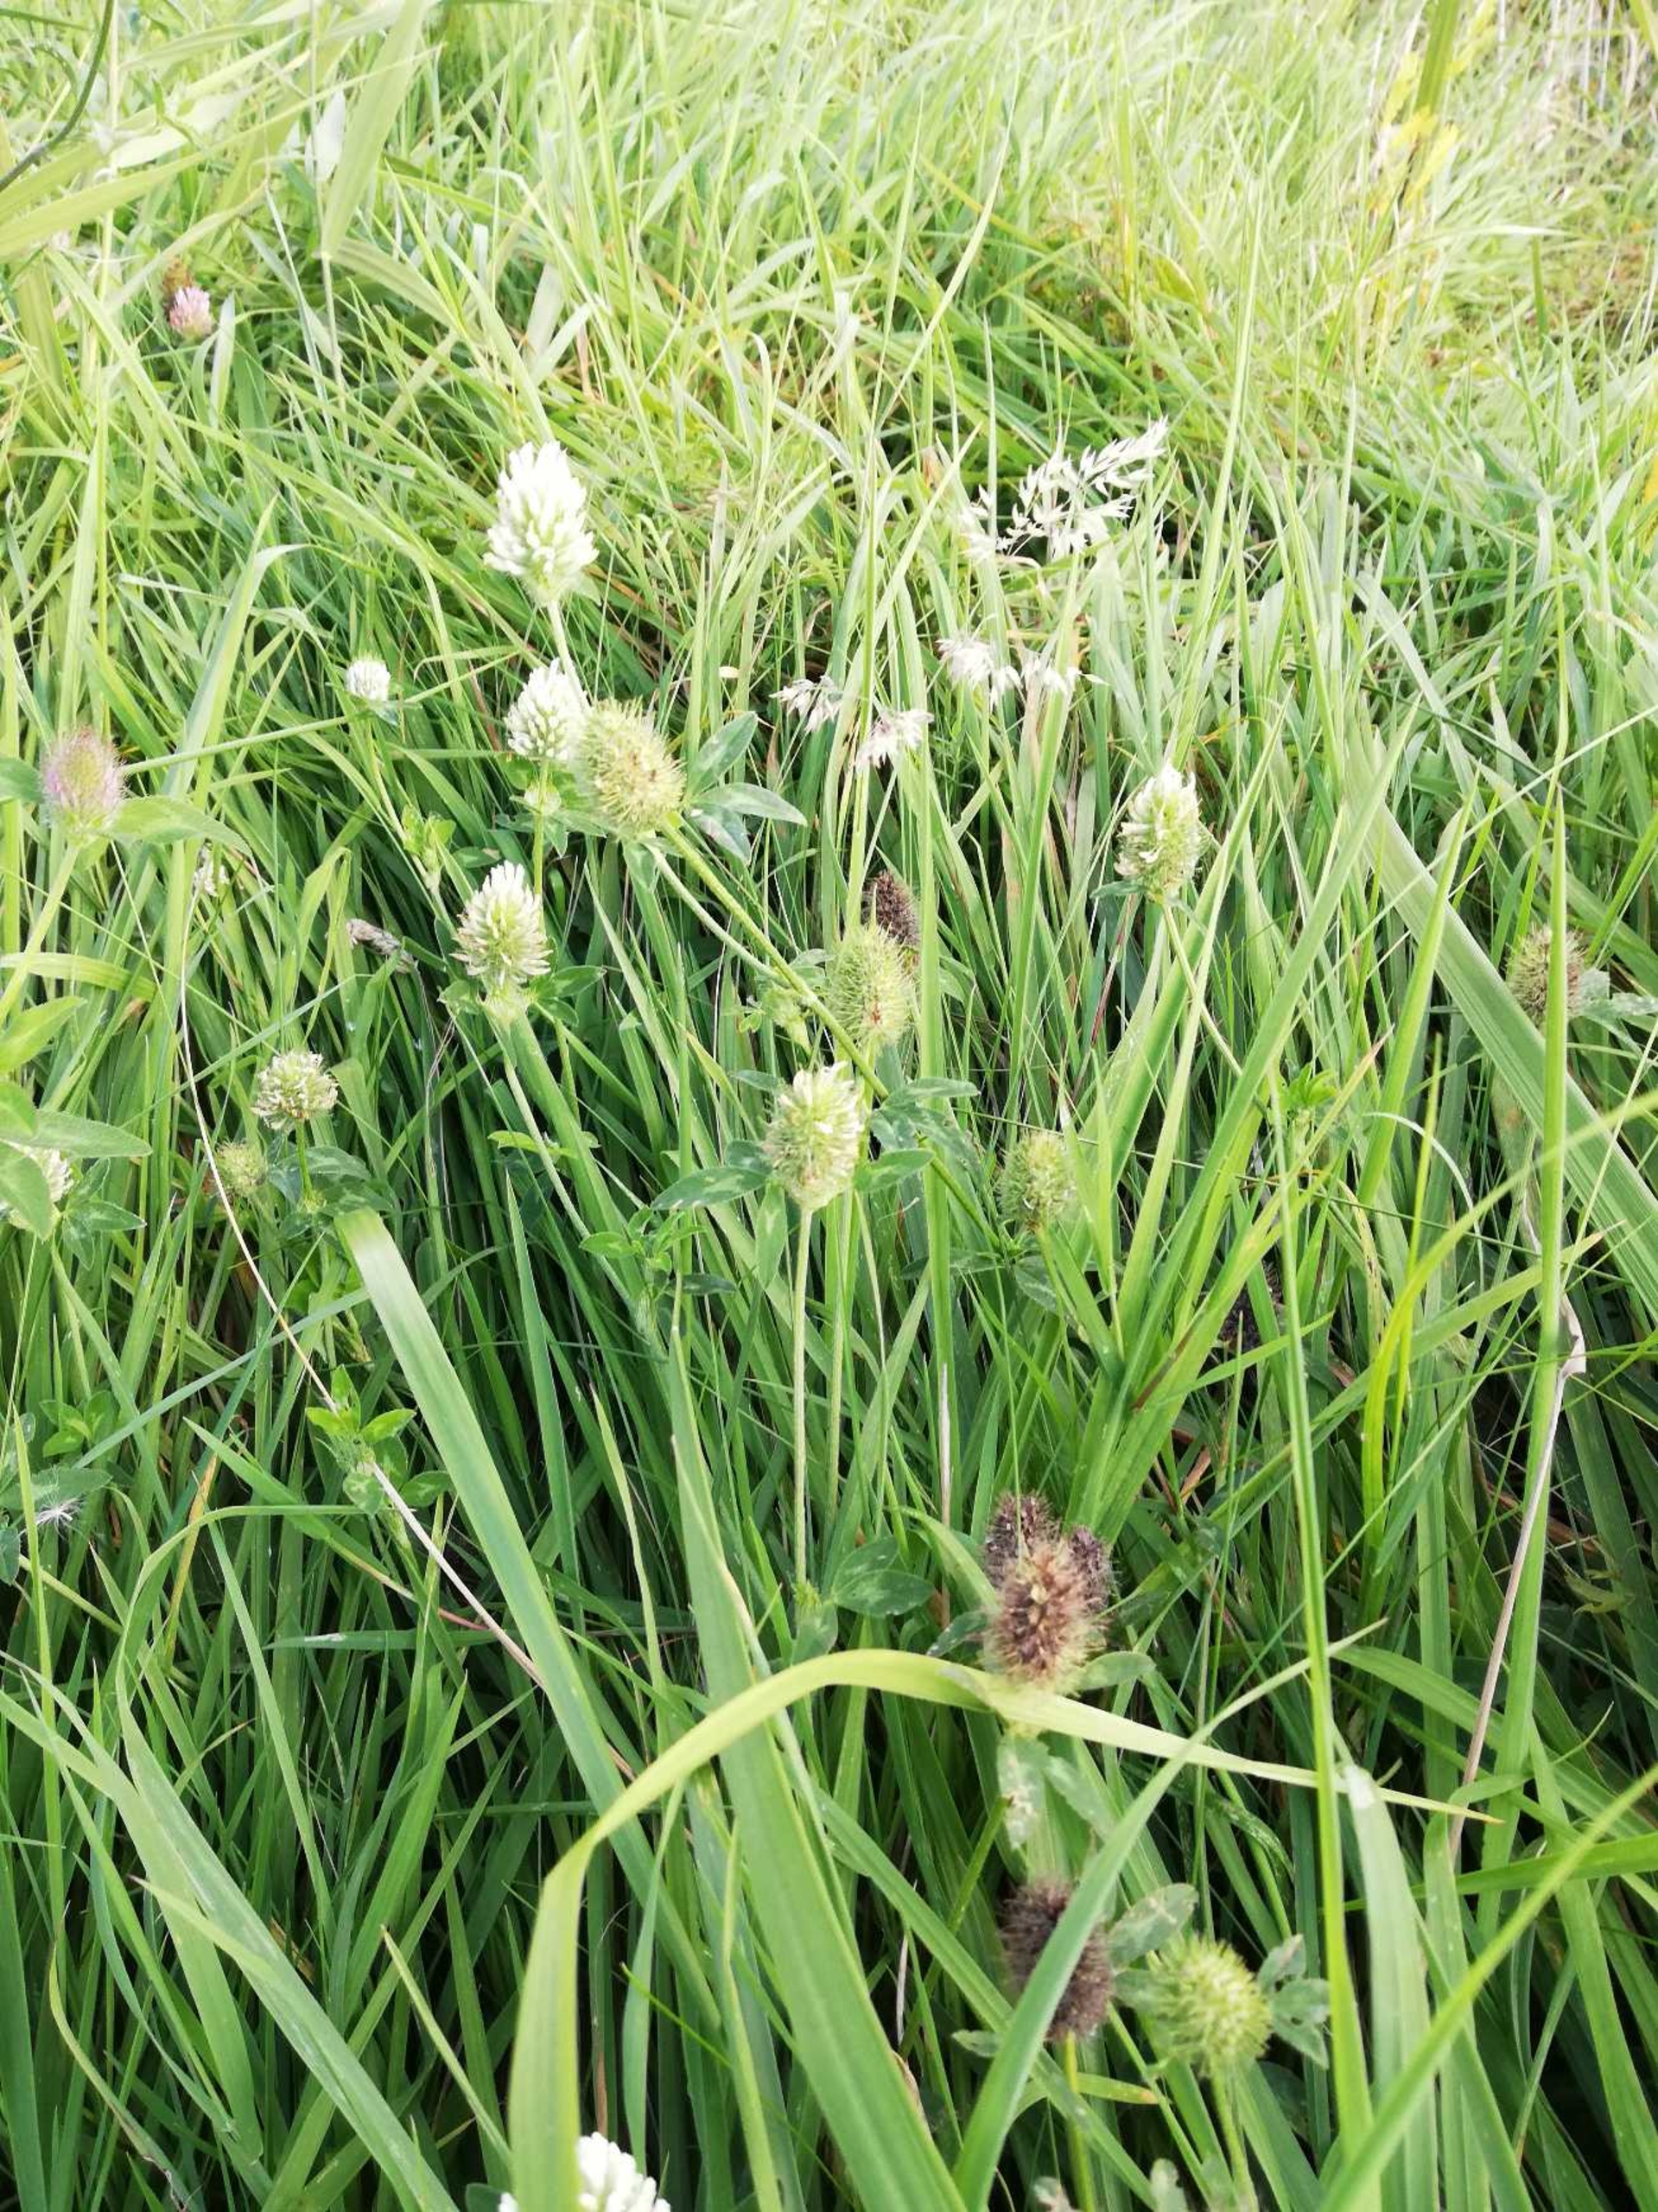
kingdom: Plantae
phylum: Tracheophyta
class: Magnoliopsida
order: Fabales
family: Fabaceae
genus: Trifolium
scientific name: Trifolium alexandrinum
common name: Aleksandriner-kløver
